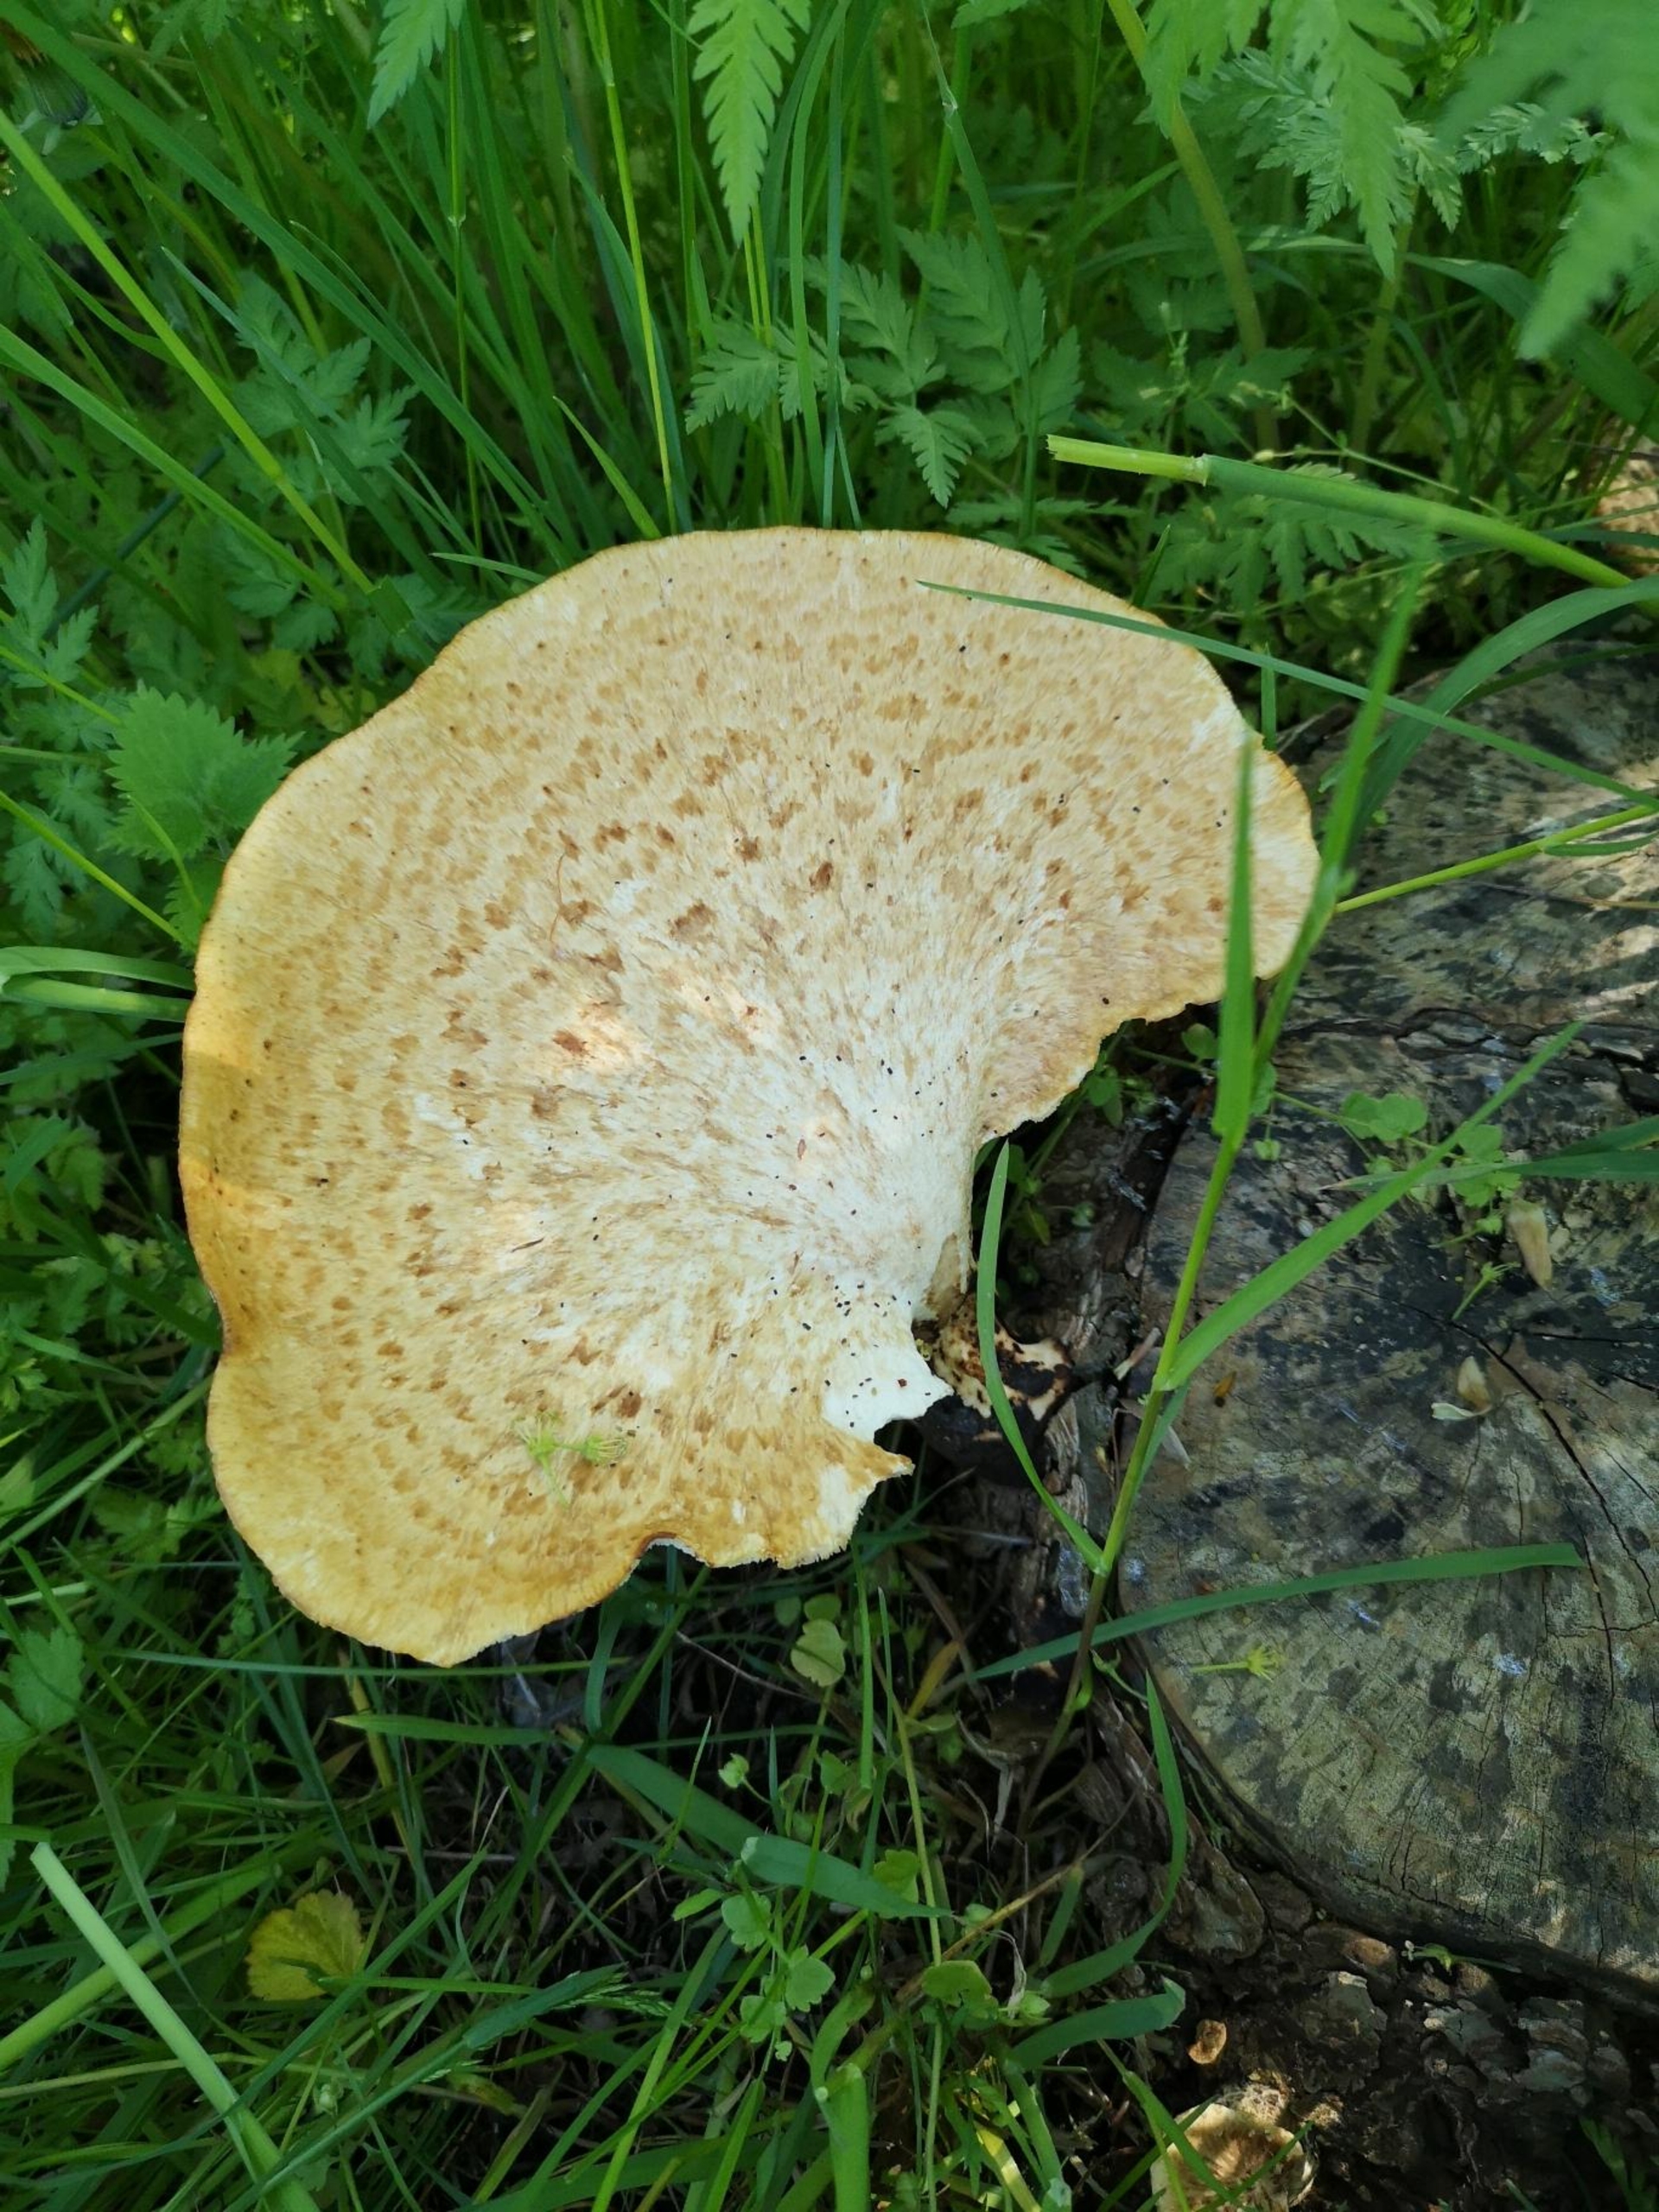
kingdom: Fungi
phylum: Basidiomycota
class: Agaricomycetes
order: Polyporales
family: Polyporaceae
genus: Cerioporus
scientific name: Cerioporus squamosus
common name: Skællet stilkporesvamp
